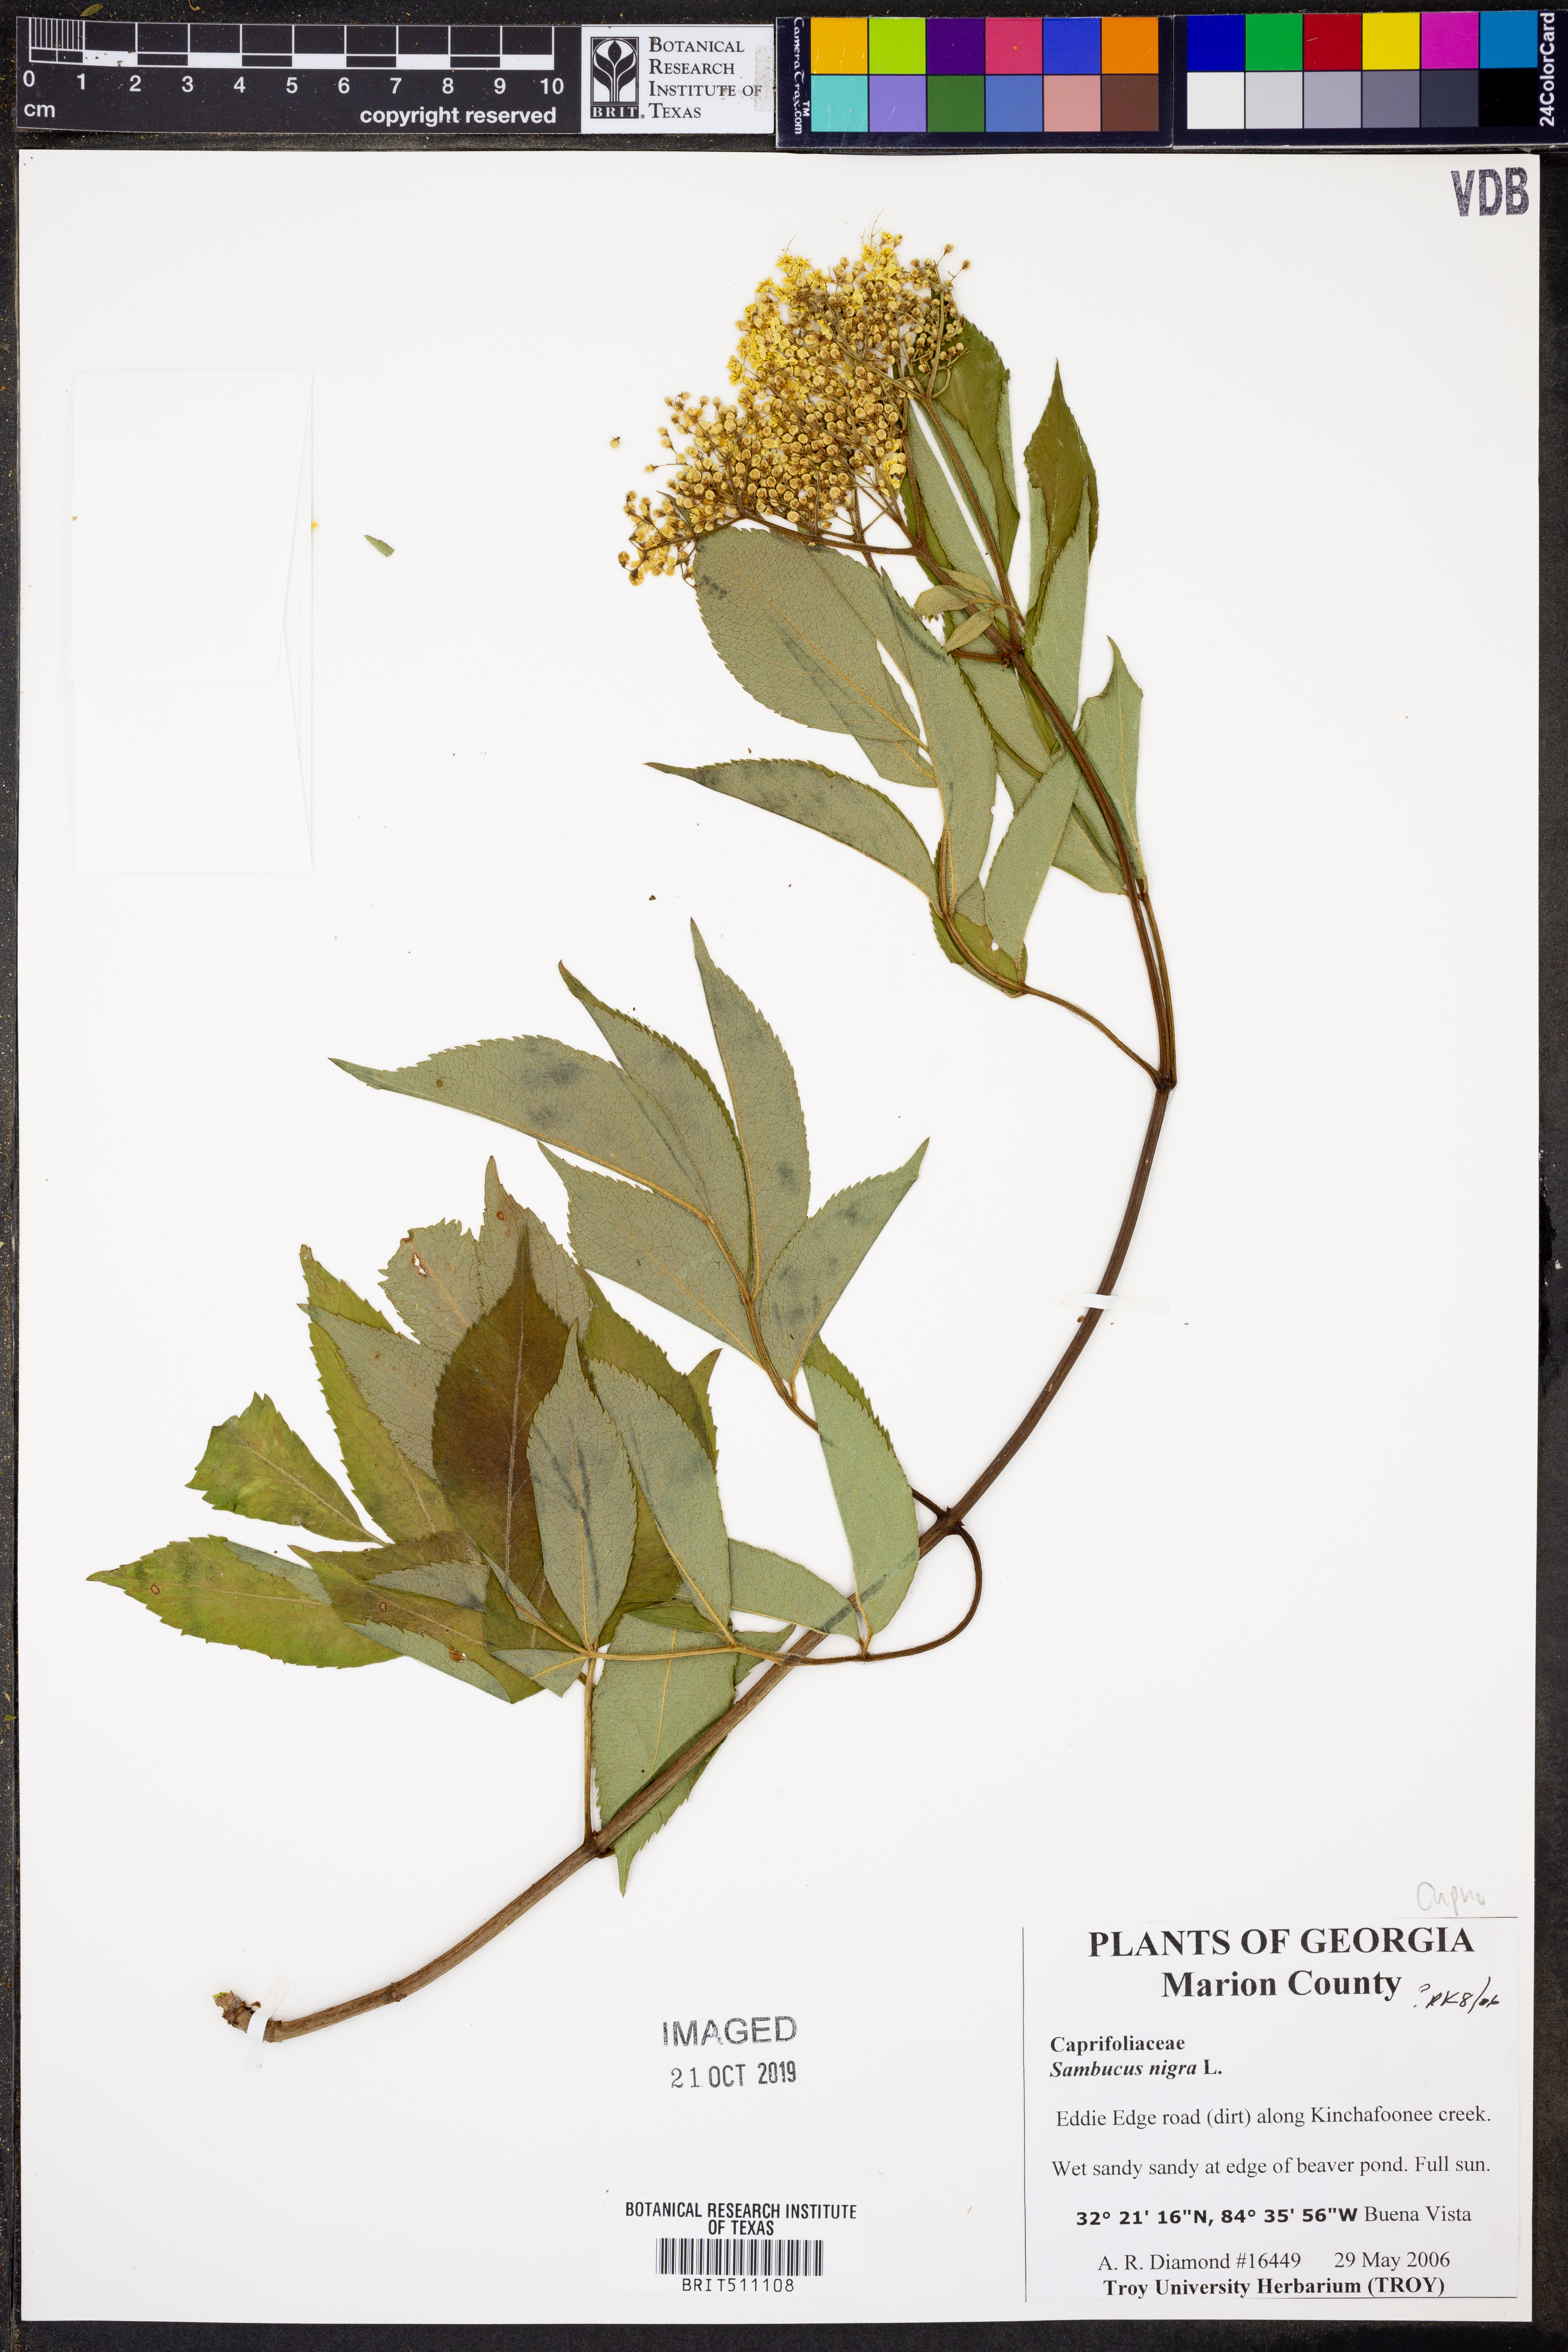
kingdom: Plantae
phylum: Tracheophyta
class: Magnoliopsida
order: Dipsacales
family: Viburnaceae
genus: Sambucus
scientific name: Sambucus nigra
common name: Elder
